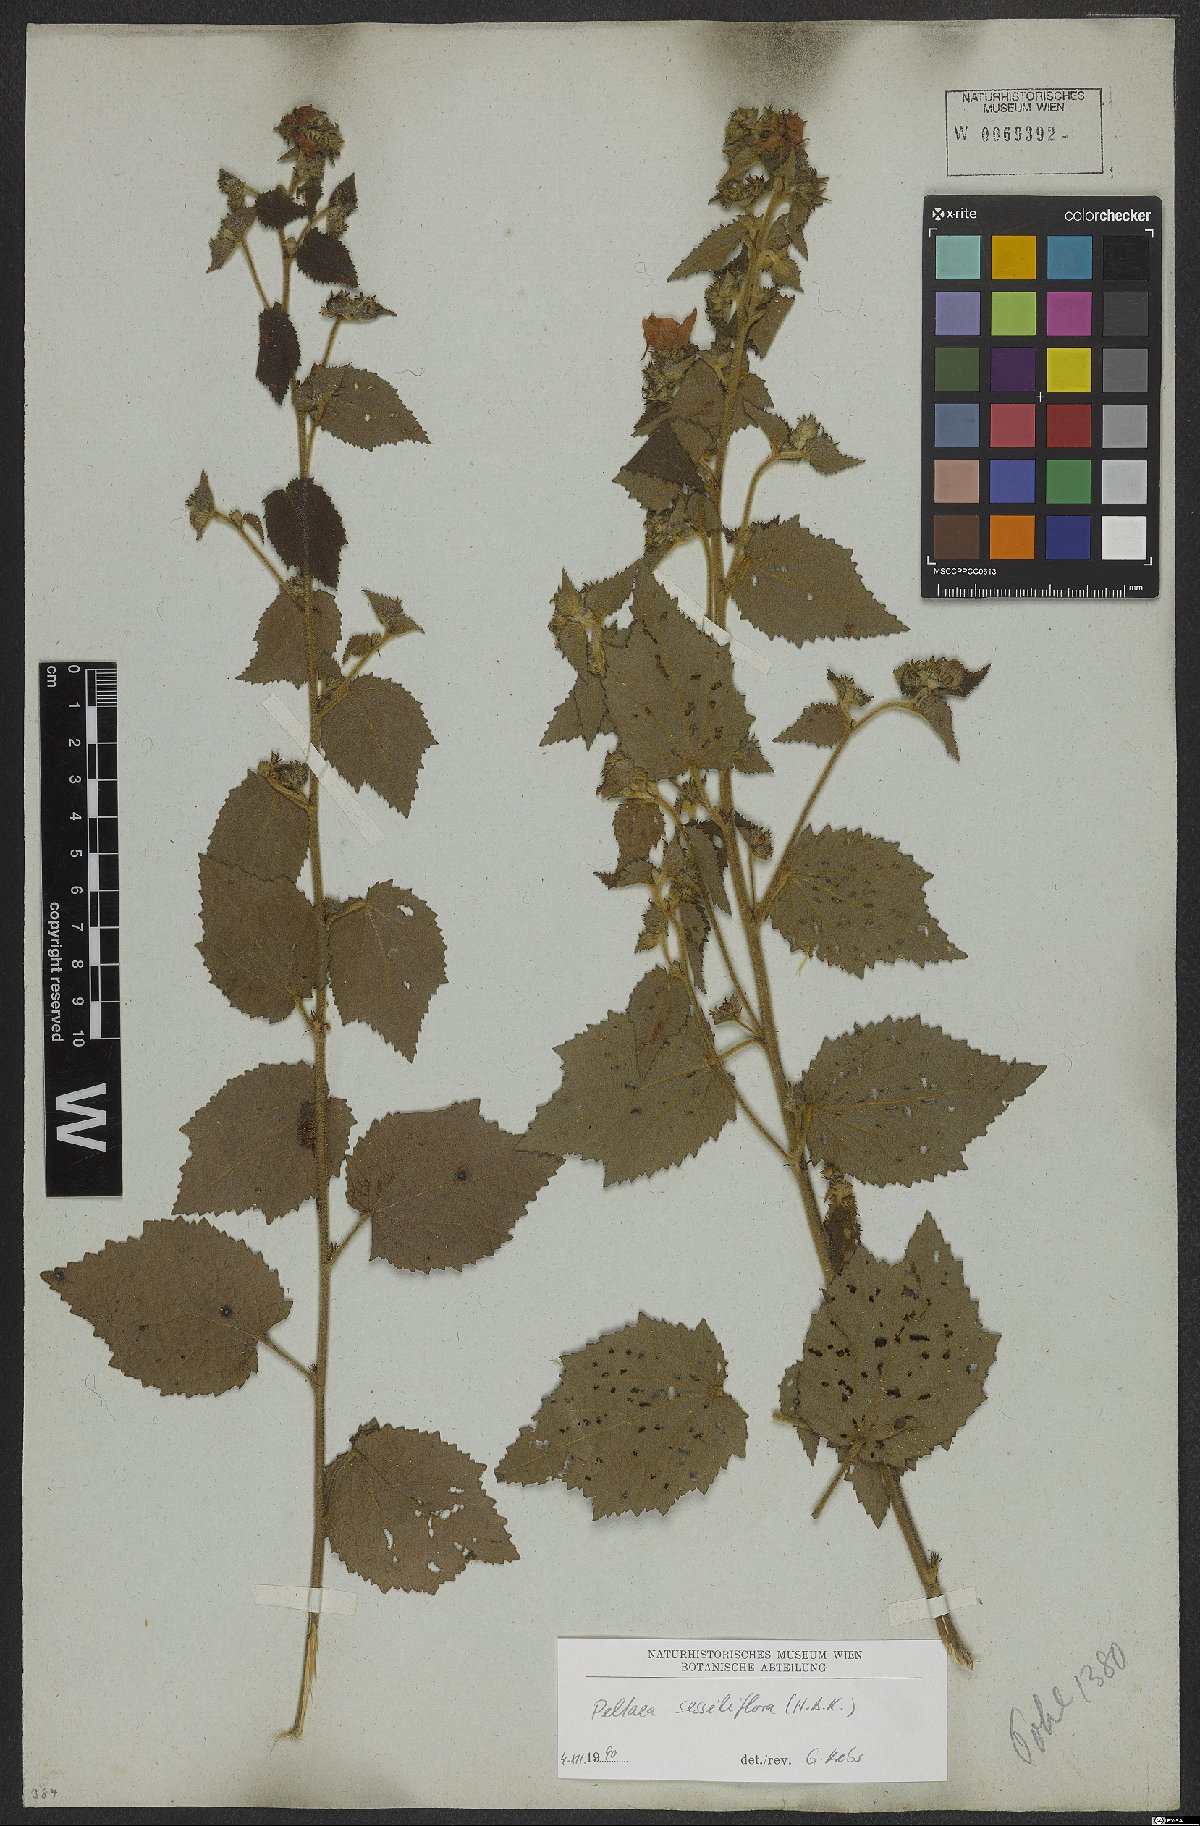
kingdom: Plantae
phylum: Tracheophyta
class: Magnoliopsida
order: Malvales
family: Malvaceae
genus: Peltaea
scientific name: Peltaea sessiliflora
